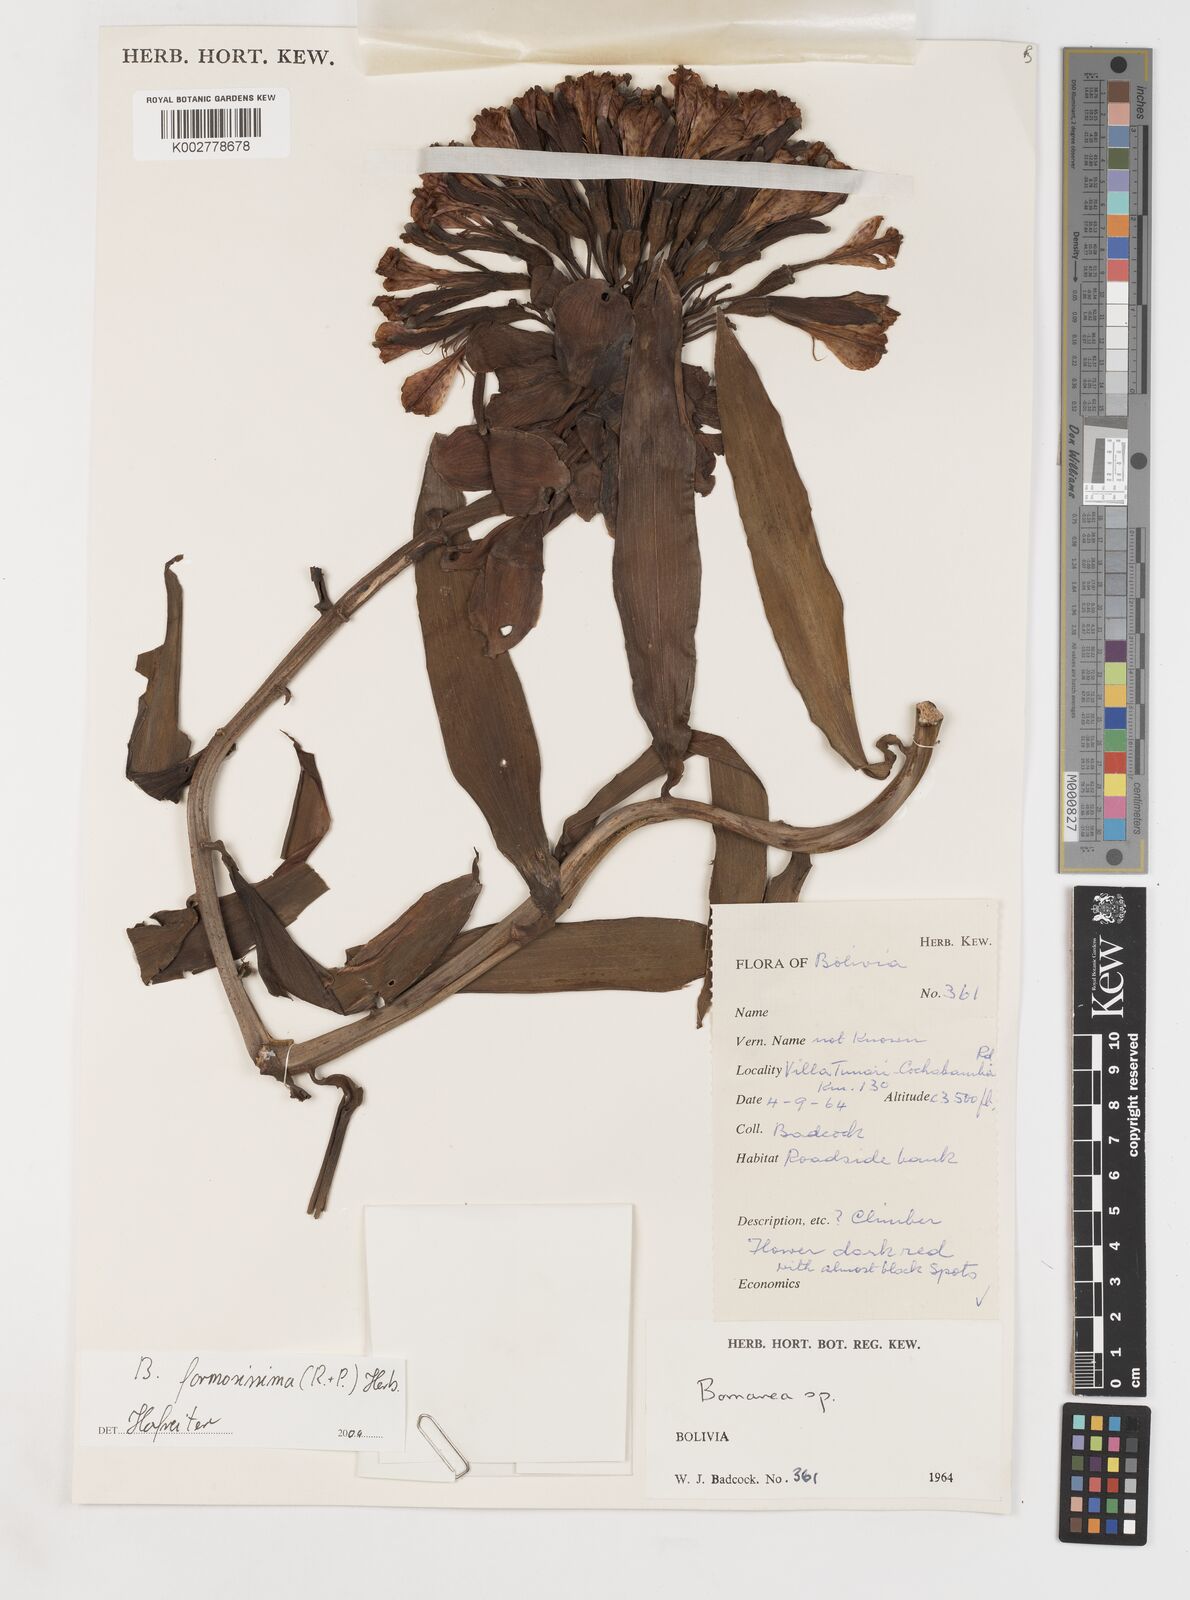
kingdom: Plantae
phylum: Tracheophyta
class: Liliopsida
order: Liliales
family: Alstroemeriaceae
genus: Bomarea
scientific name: Bomarea formosissima
